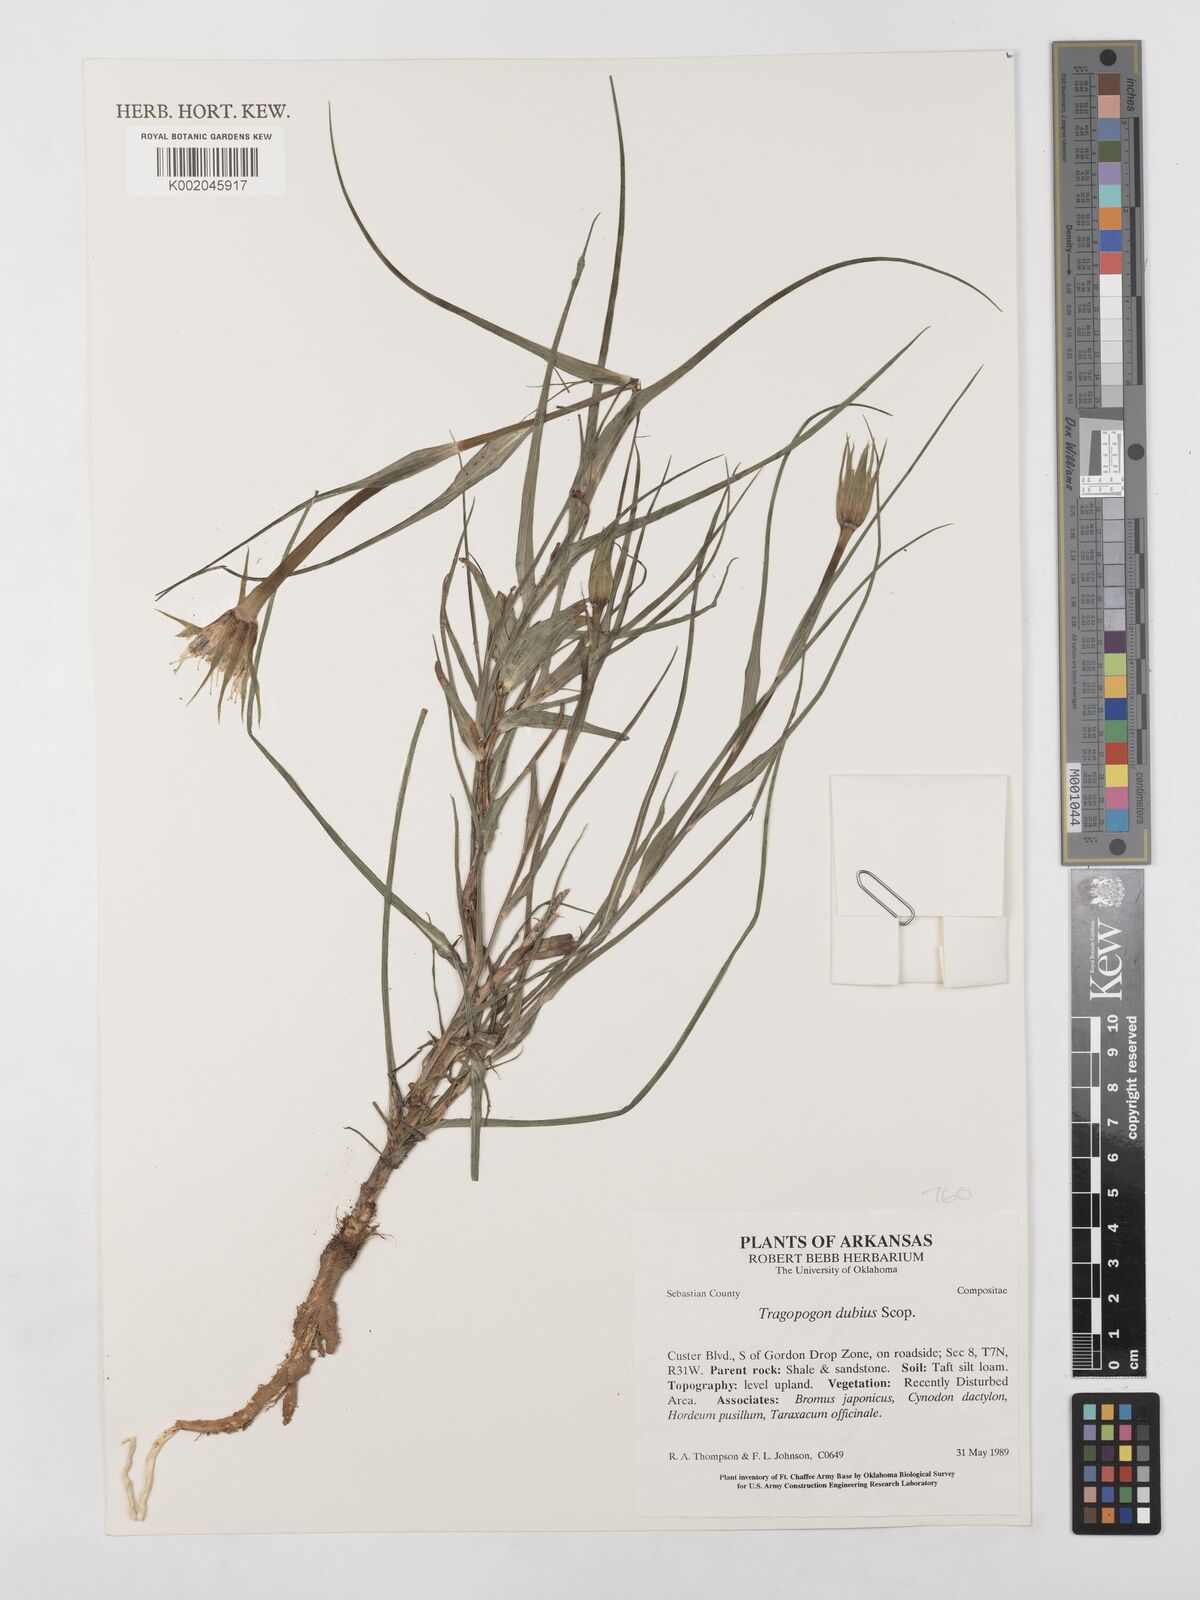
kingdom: Plantae
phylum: Tracheophyta
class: Magnoliopsida
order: Asterales
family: Asteraceae
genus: Tragopogon
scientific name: Tragopogon dubius
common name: Yellow salsify
